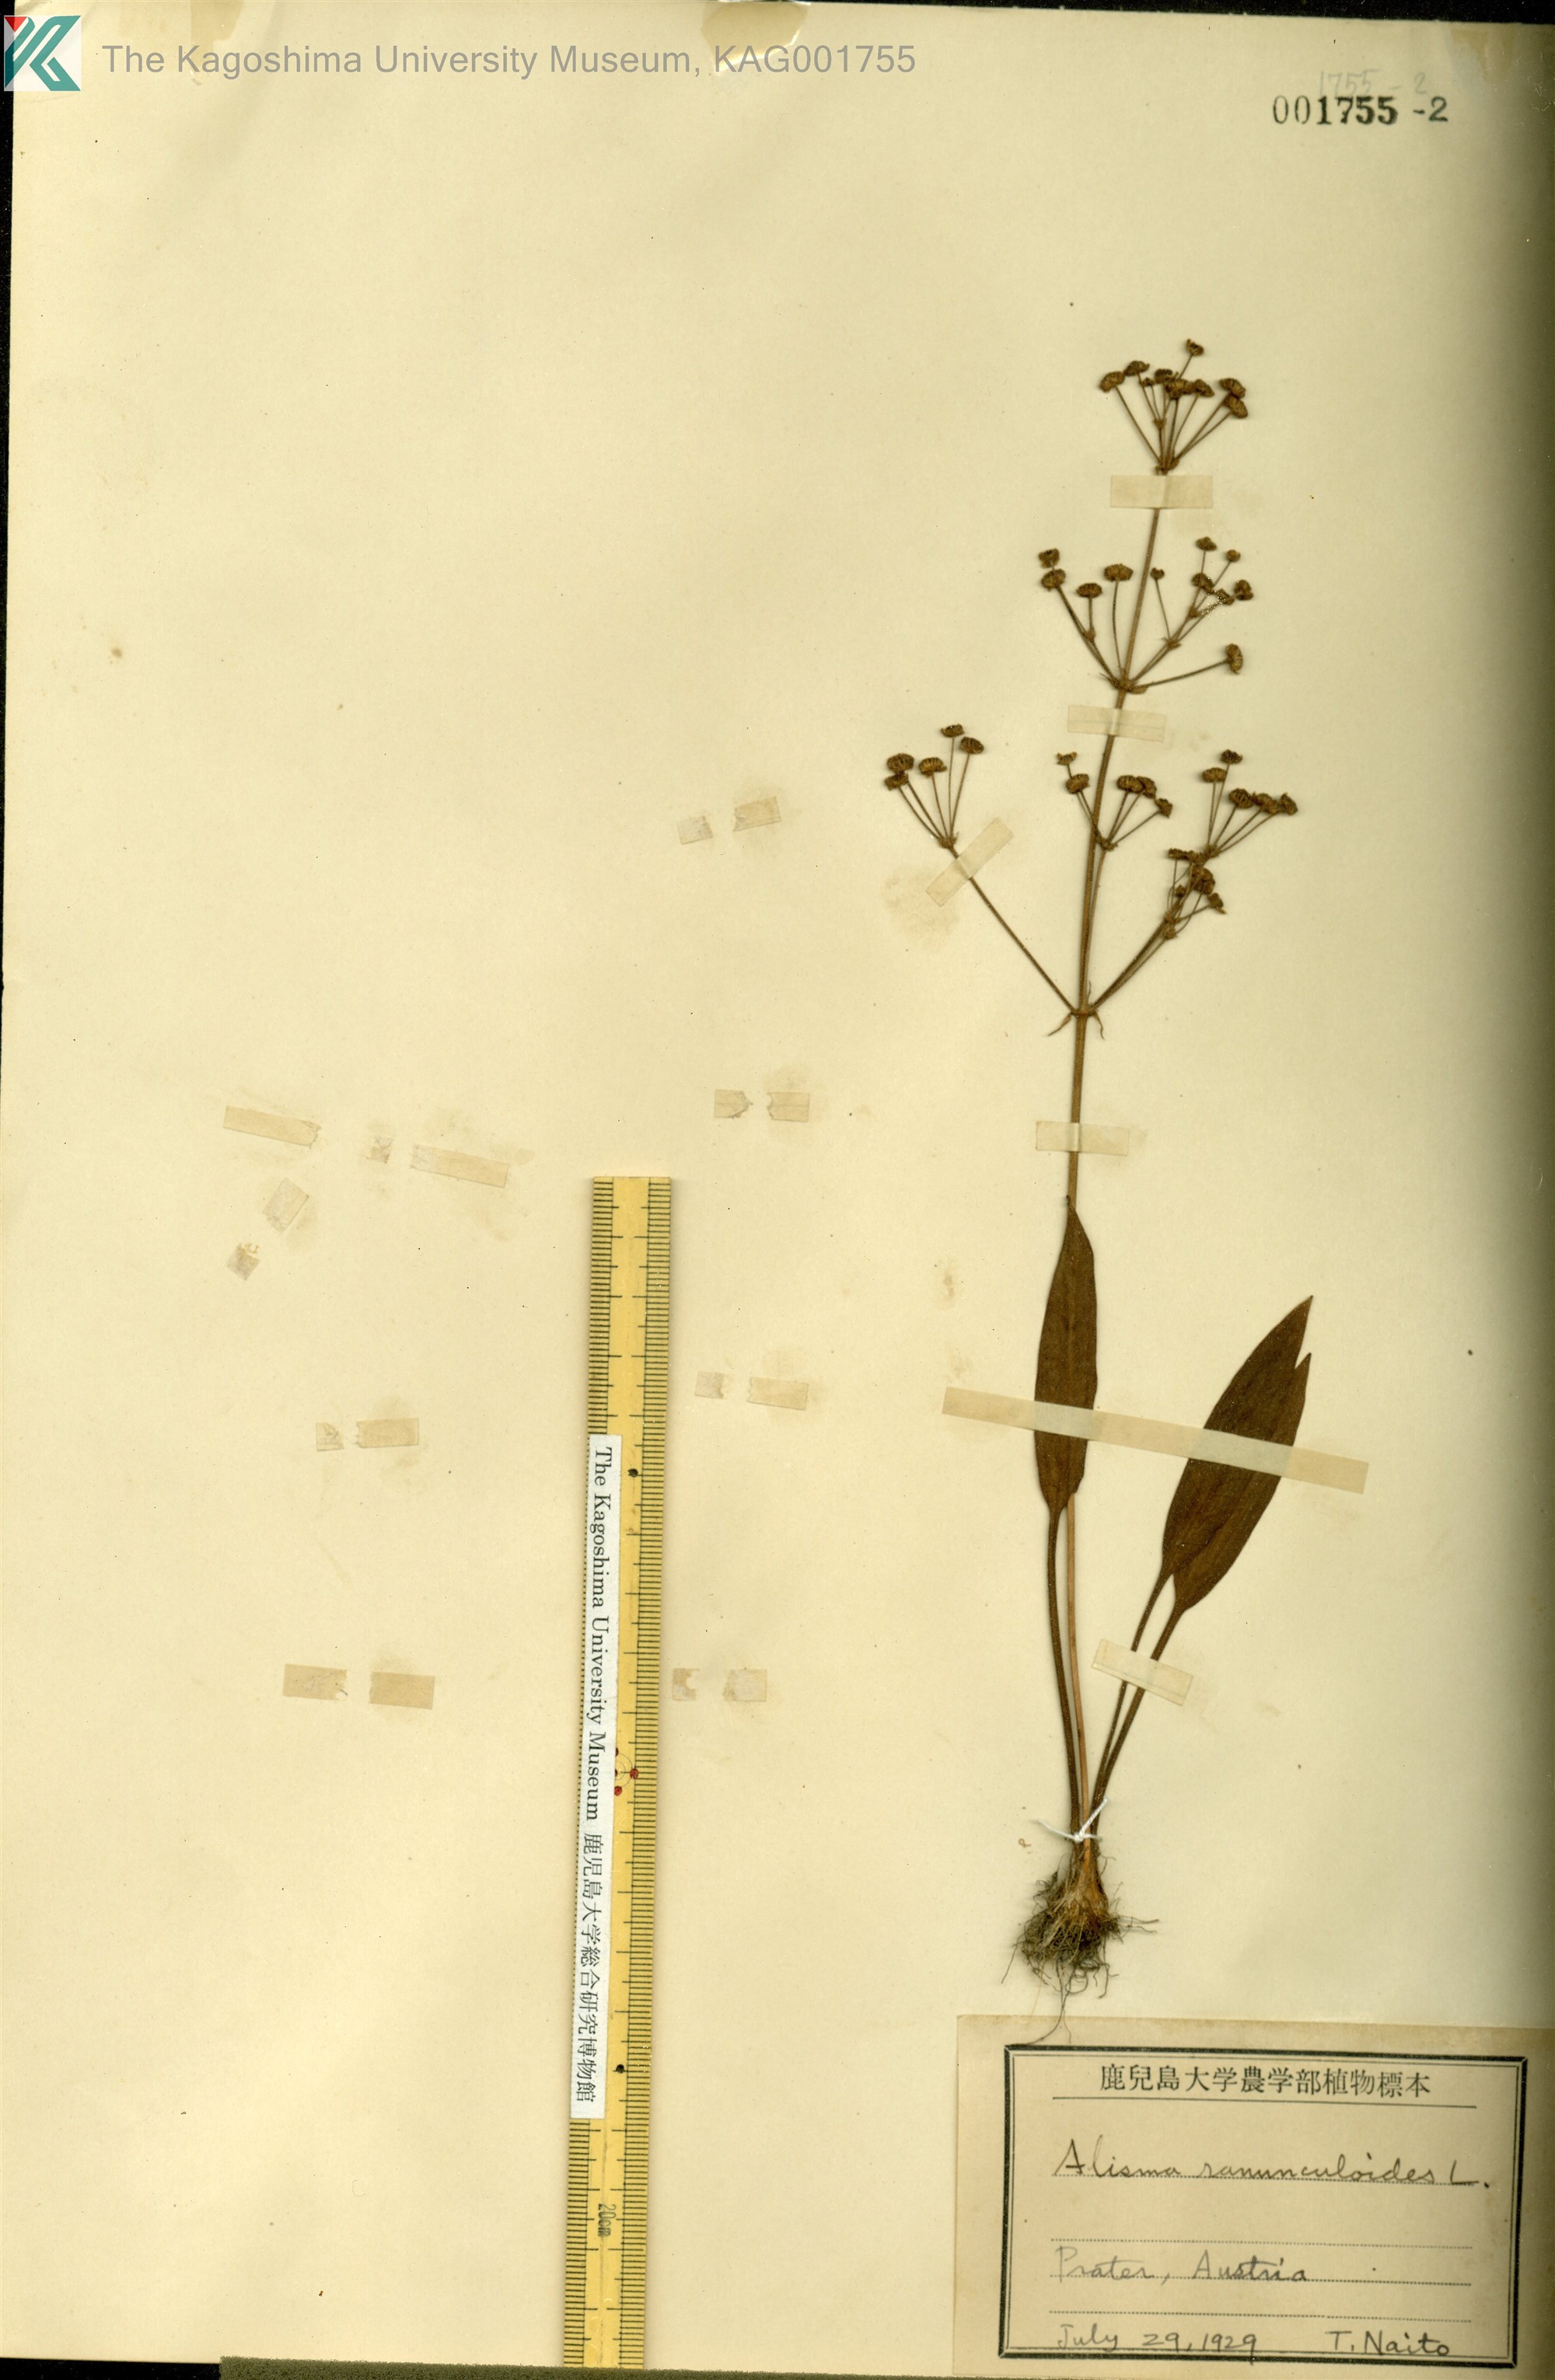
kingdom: Plantae
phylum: Tracheophyta
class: Liliopsida
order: Alismatales
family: Alismataceae
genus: Baldellia
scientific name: Baldellia ranunculoides
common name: Lesser water-plantain
